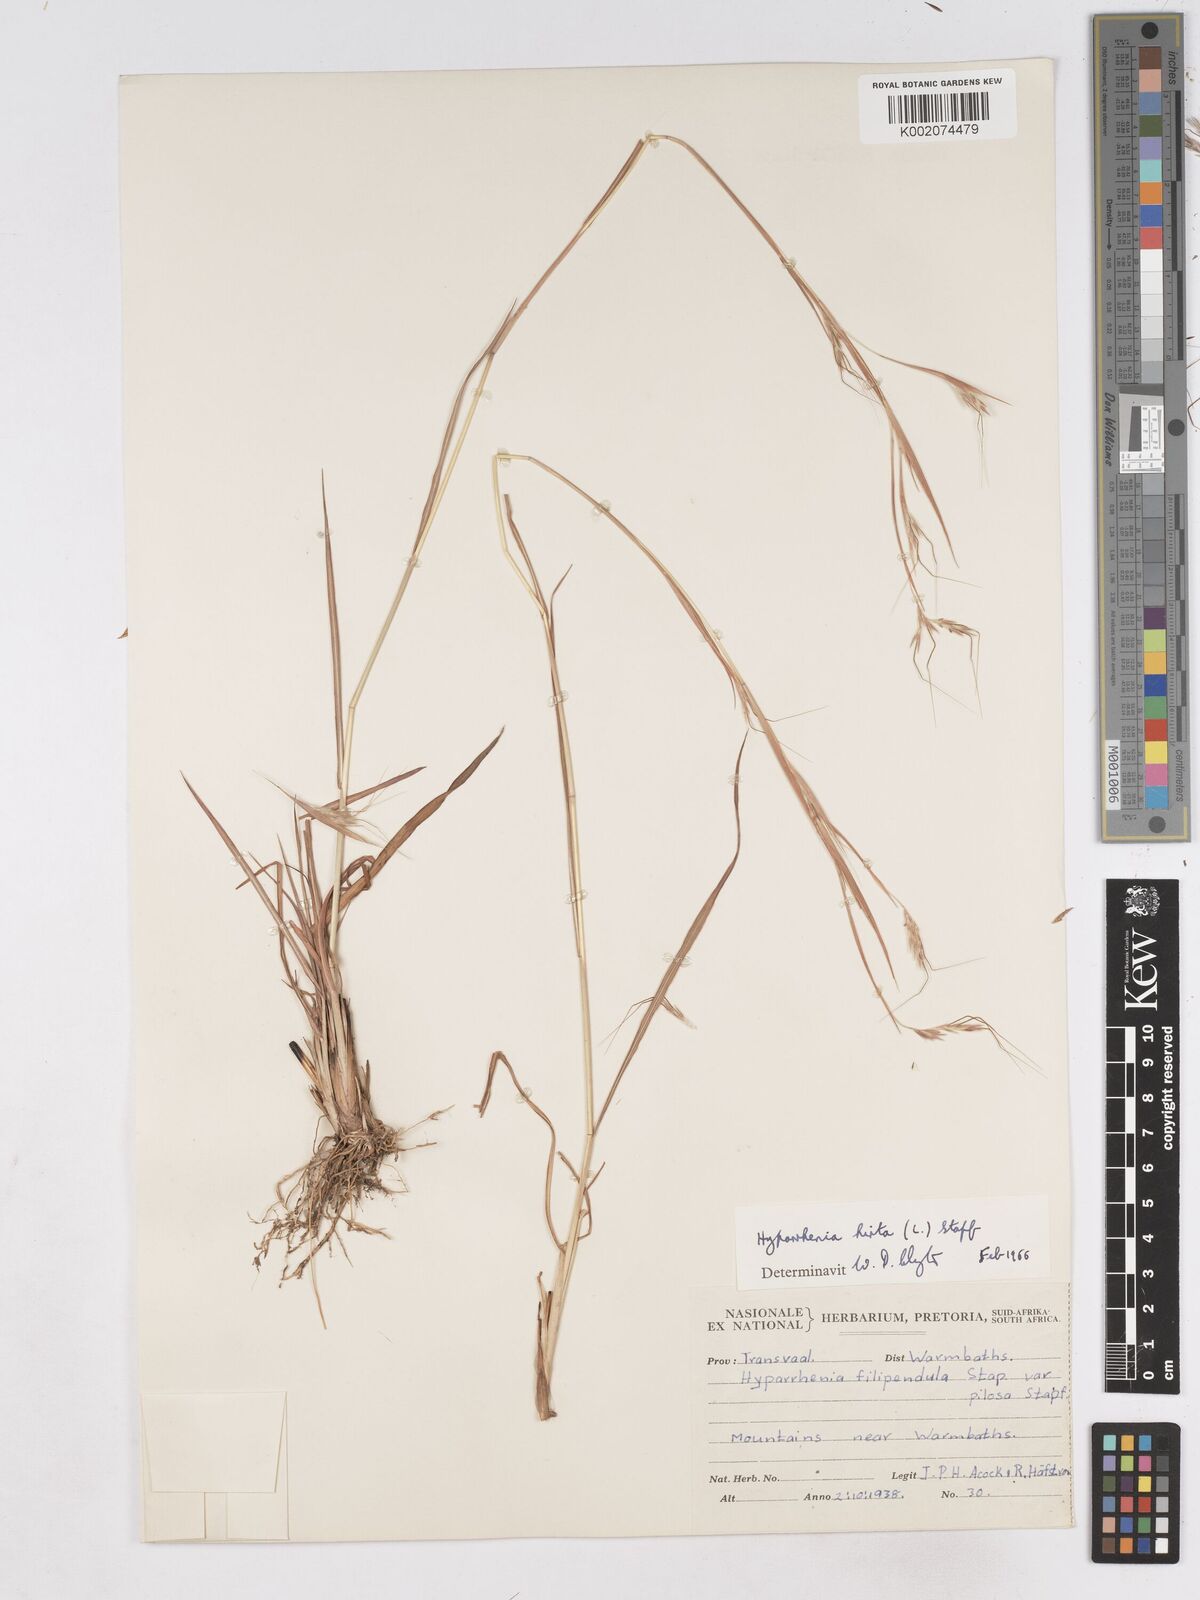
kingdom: Plantae
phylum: Tracheophyta
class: Liliopsida
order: Poales
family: Poaceae
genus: Hyparrhenia
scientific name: Hyparrhenia hirta
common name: Thatching grass
